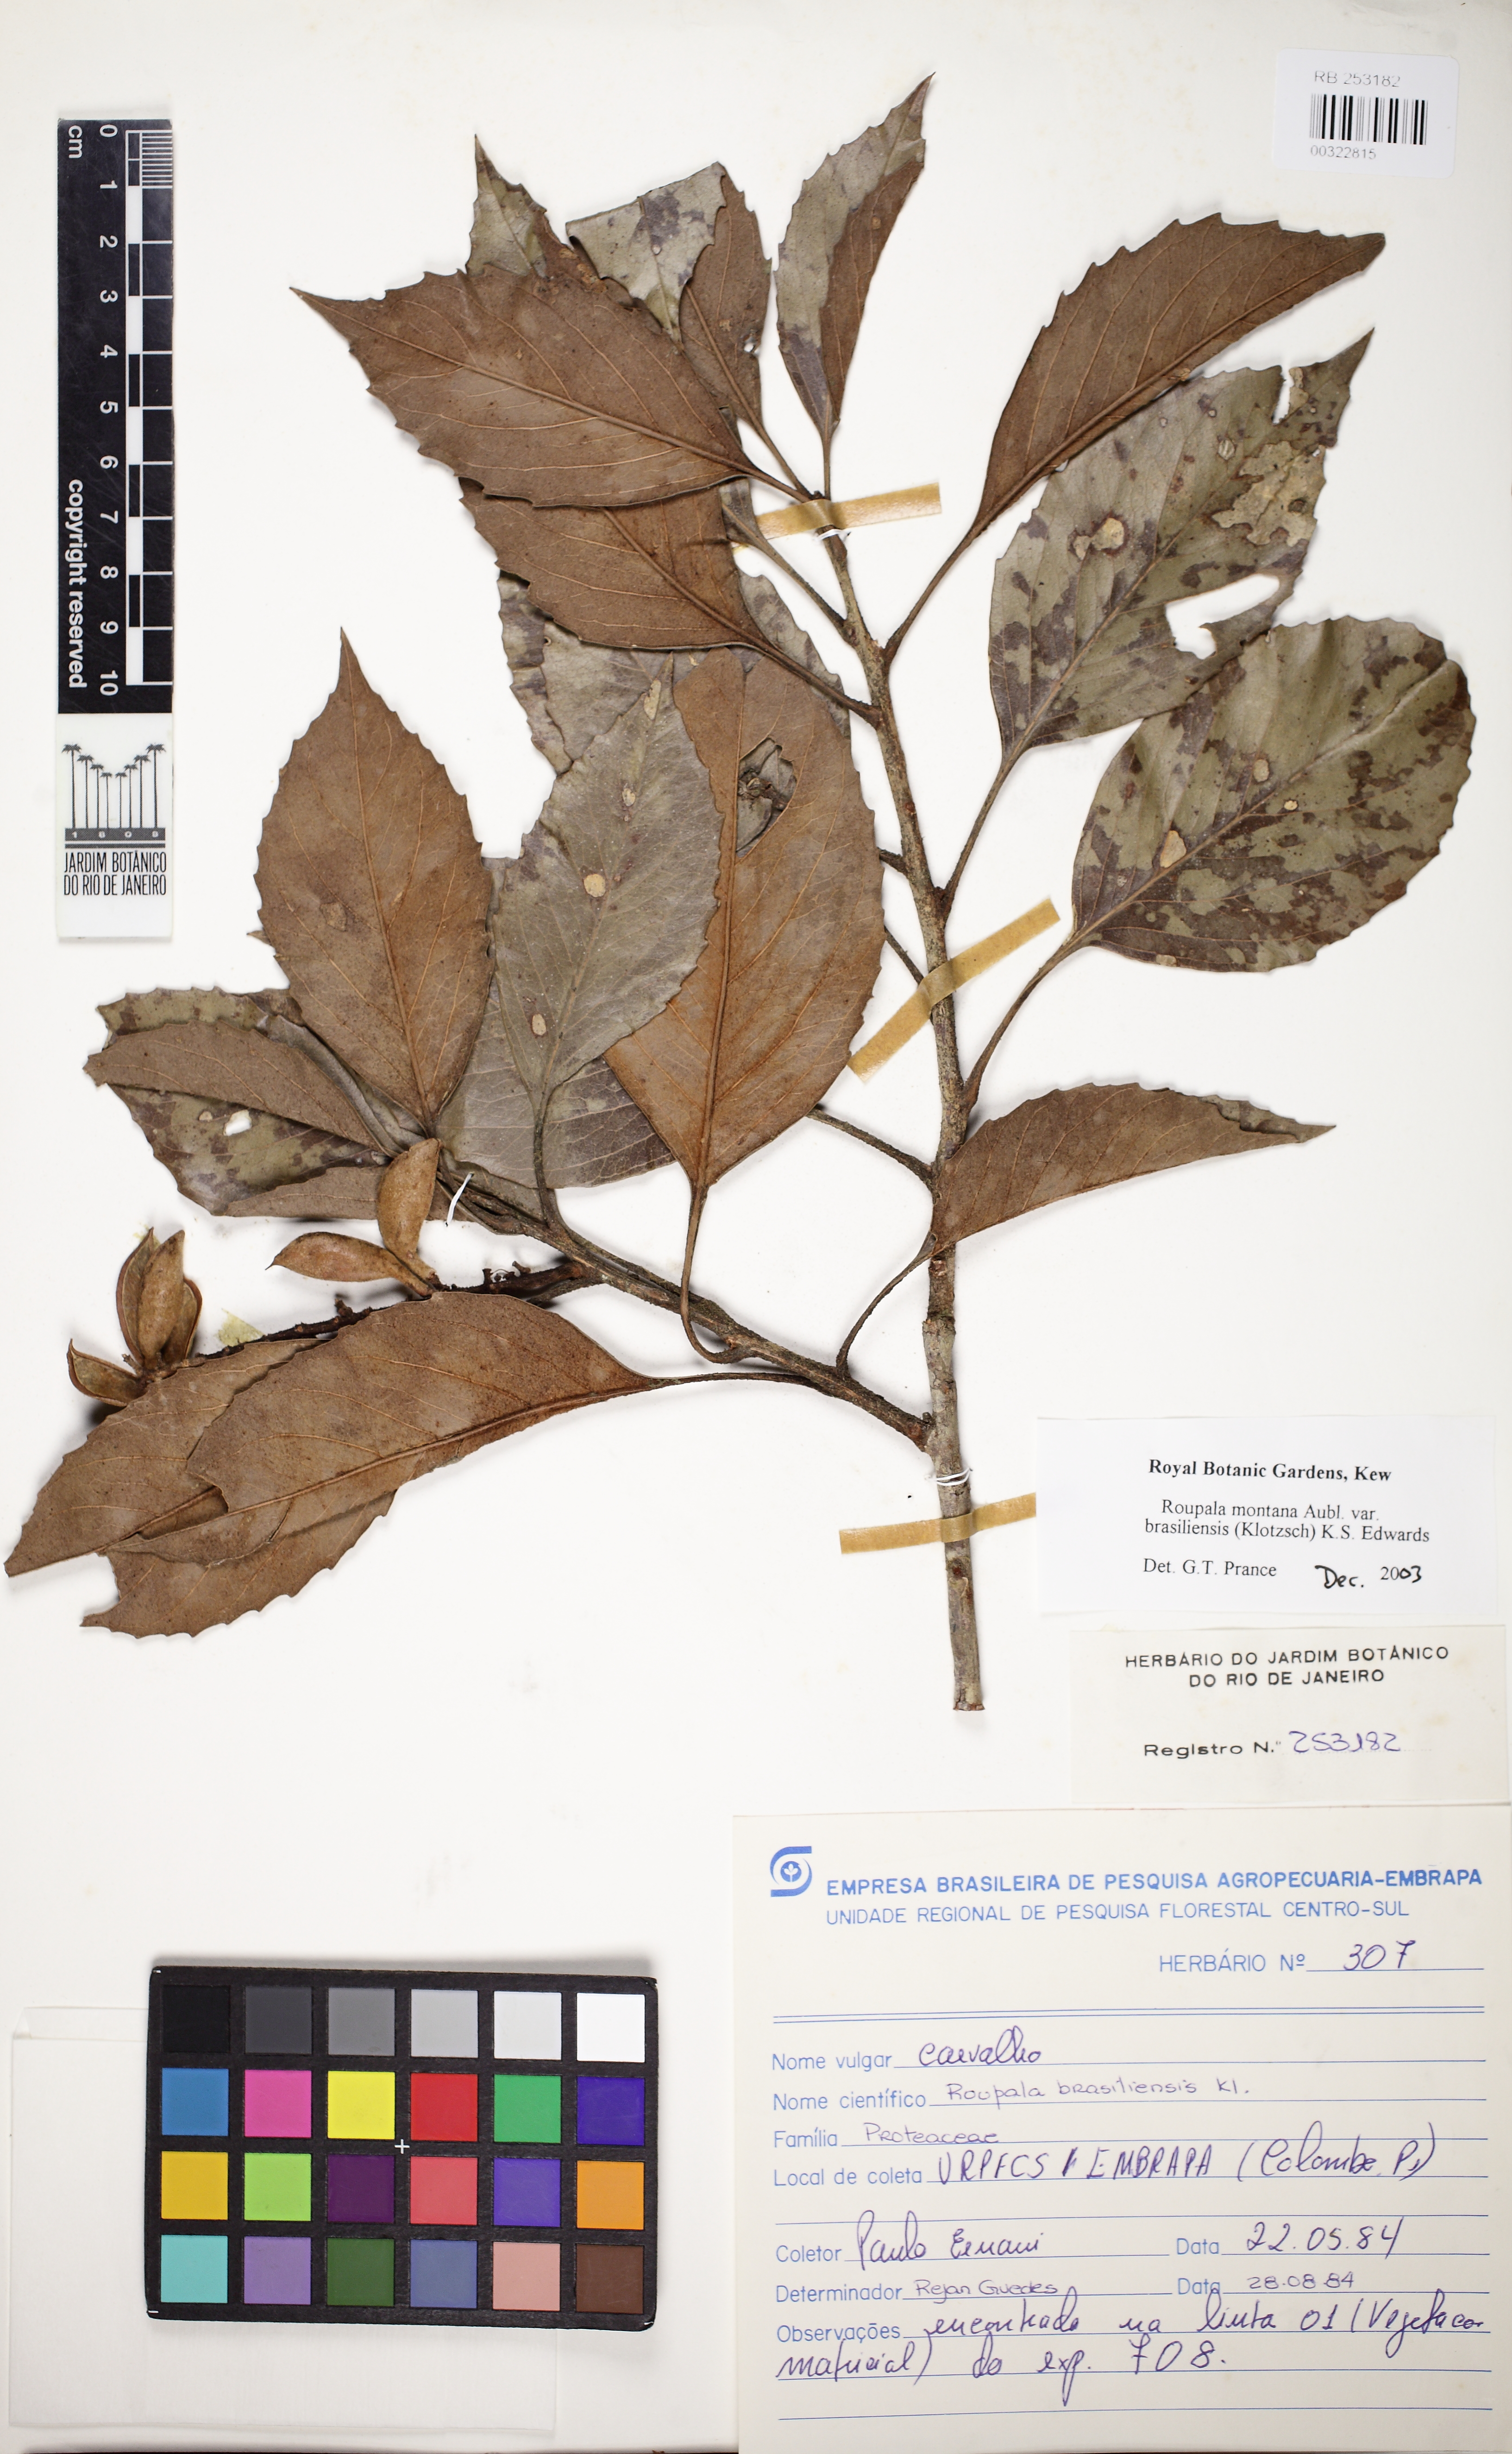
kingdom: Plantae
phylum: Tracheophyta
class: Magnoliopsida
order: Proteales
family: Proteaceae
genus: Roupala
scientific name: Roupala montana
